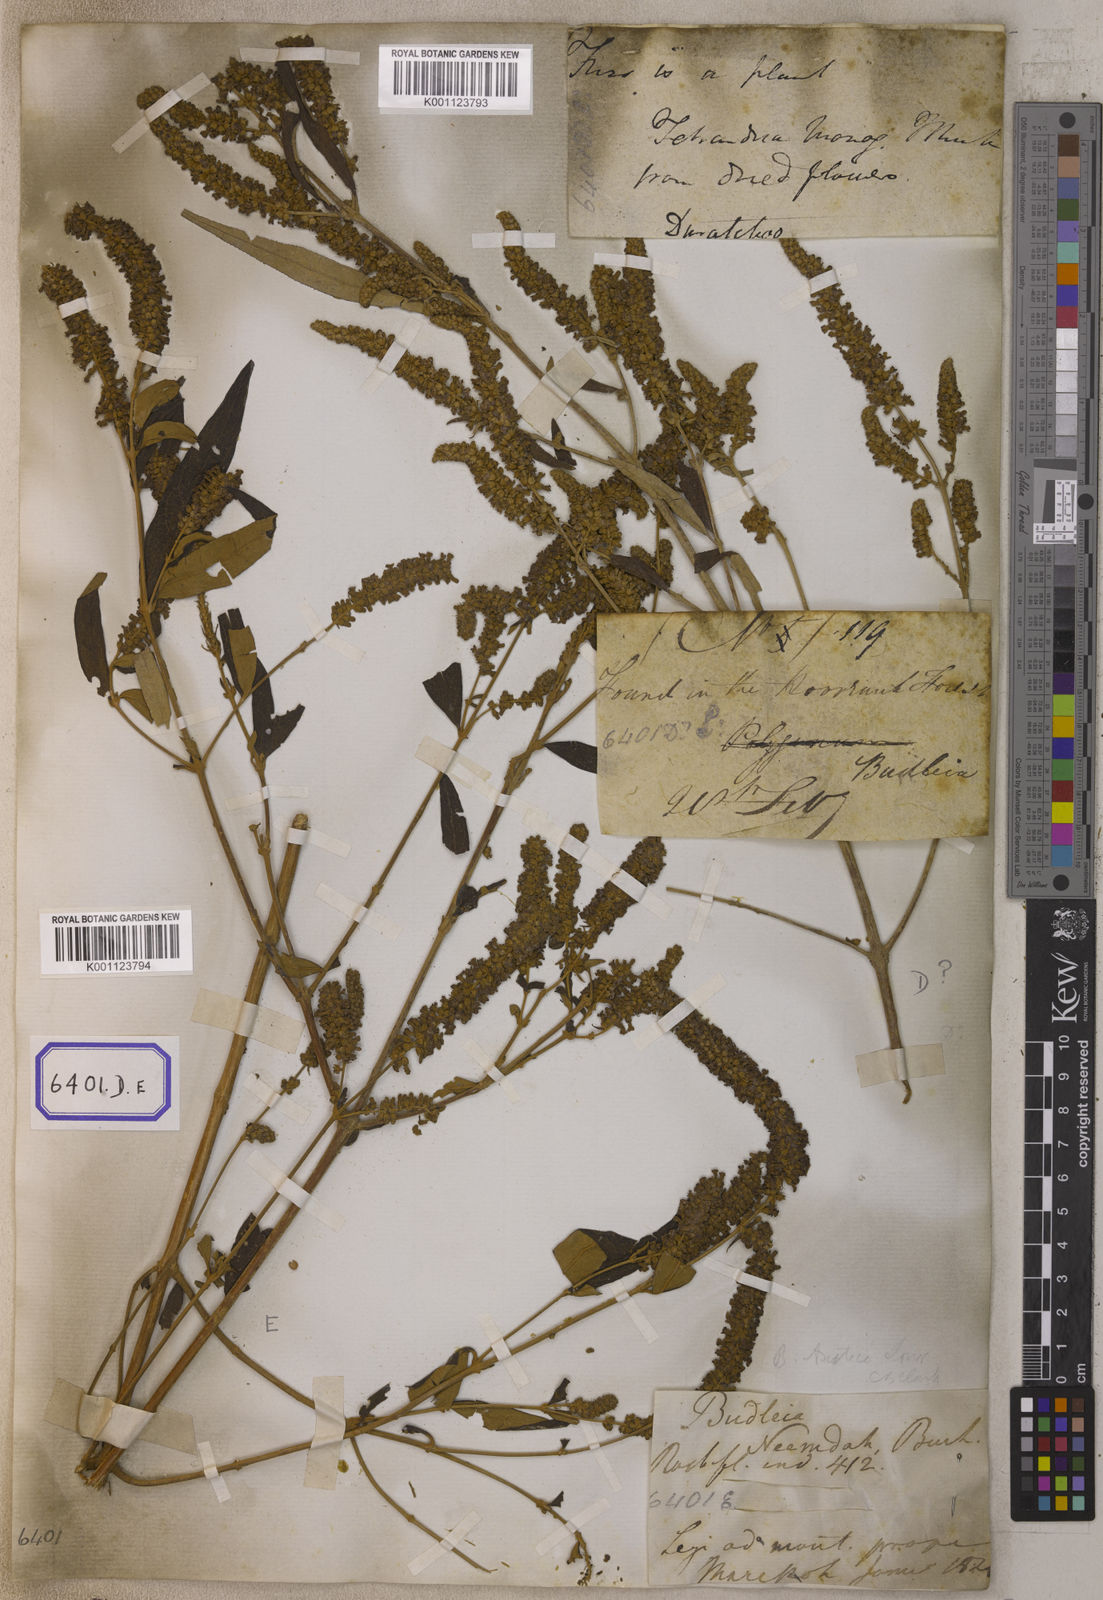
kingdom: Plantae
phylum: Tracheophyta
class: Magnoliopsida
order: Lamiales
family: Scrophulariaceae
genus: Buddleja
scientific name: Buddleja
